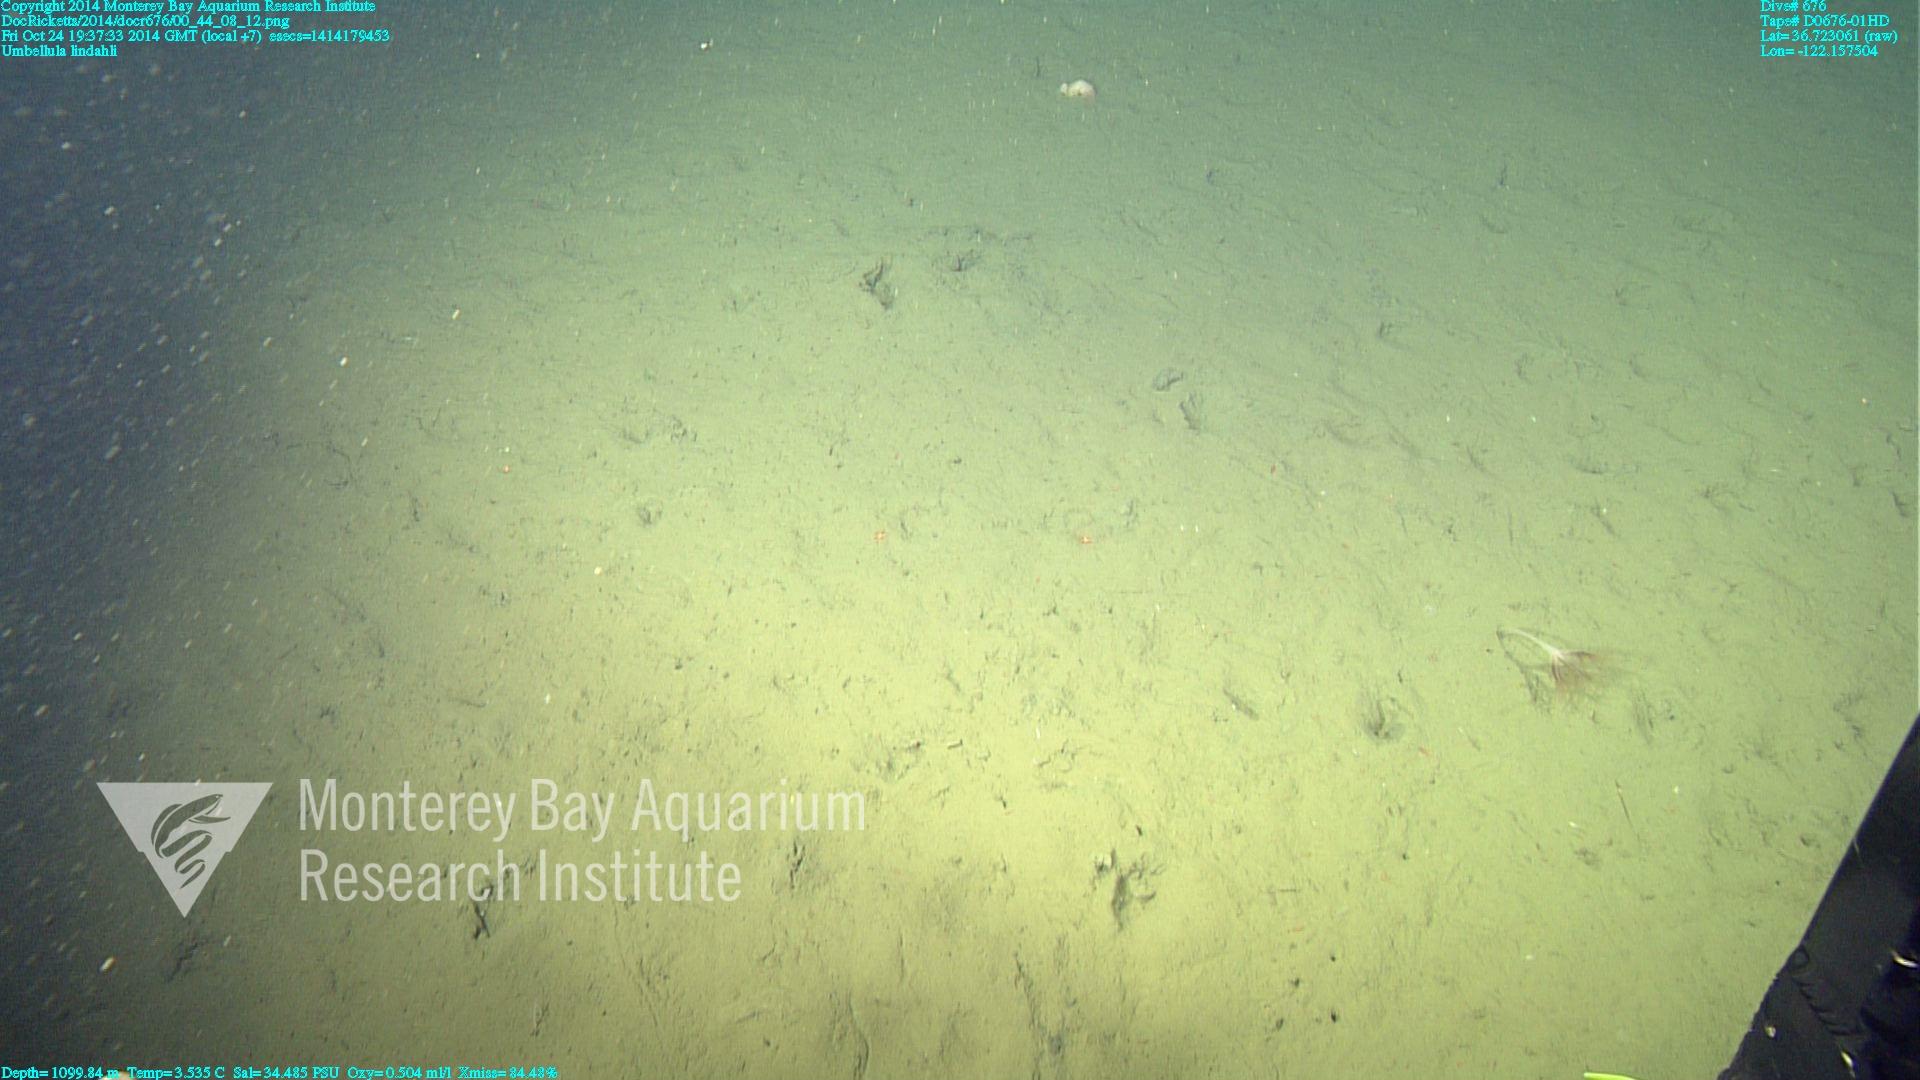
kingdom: Animalia
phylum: Cnidaria
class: Anthozoa
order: Scleralcyonacea
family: Umbellulidae
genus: Umbellula
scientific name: Umbellula lindahli
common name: Lindahl's droopy sea pen
